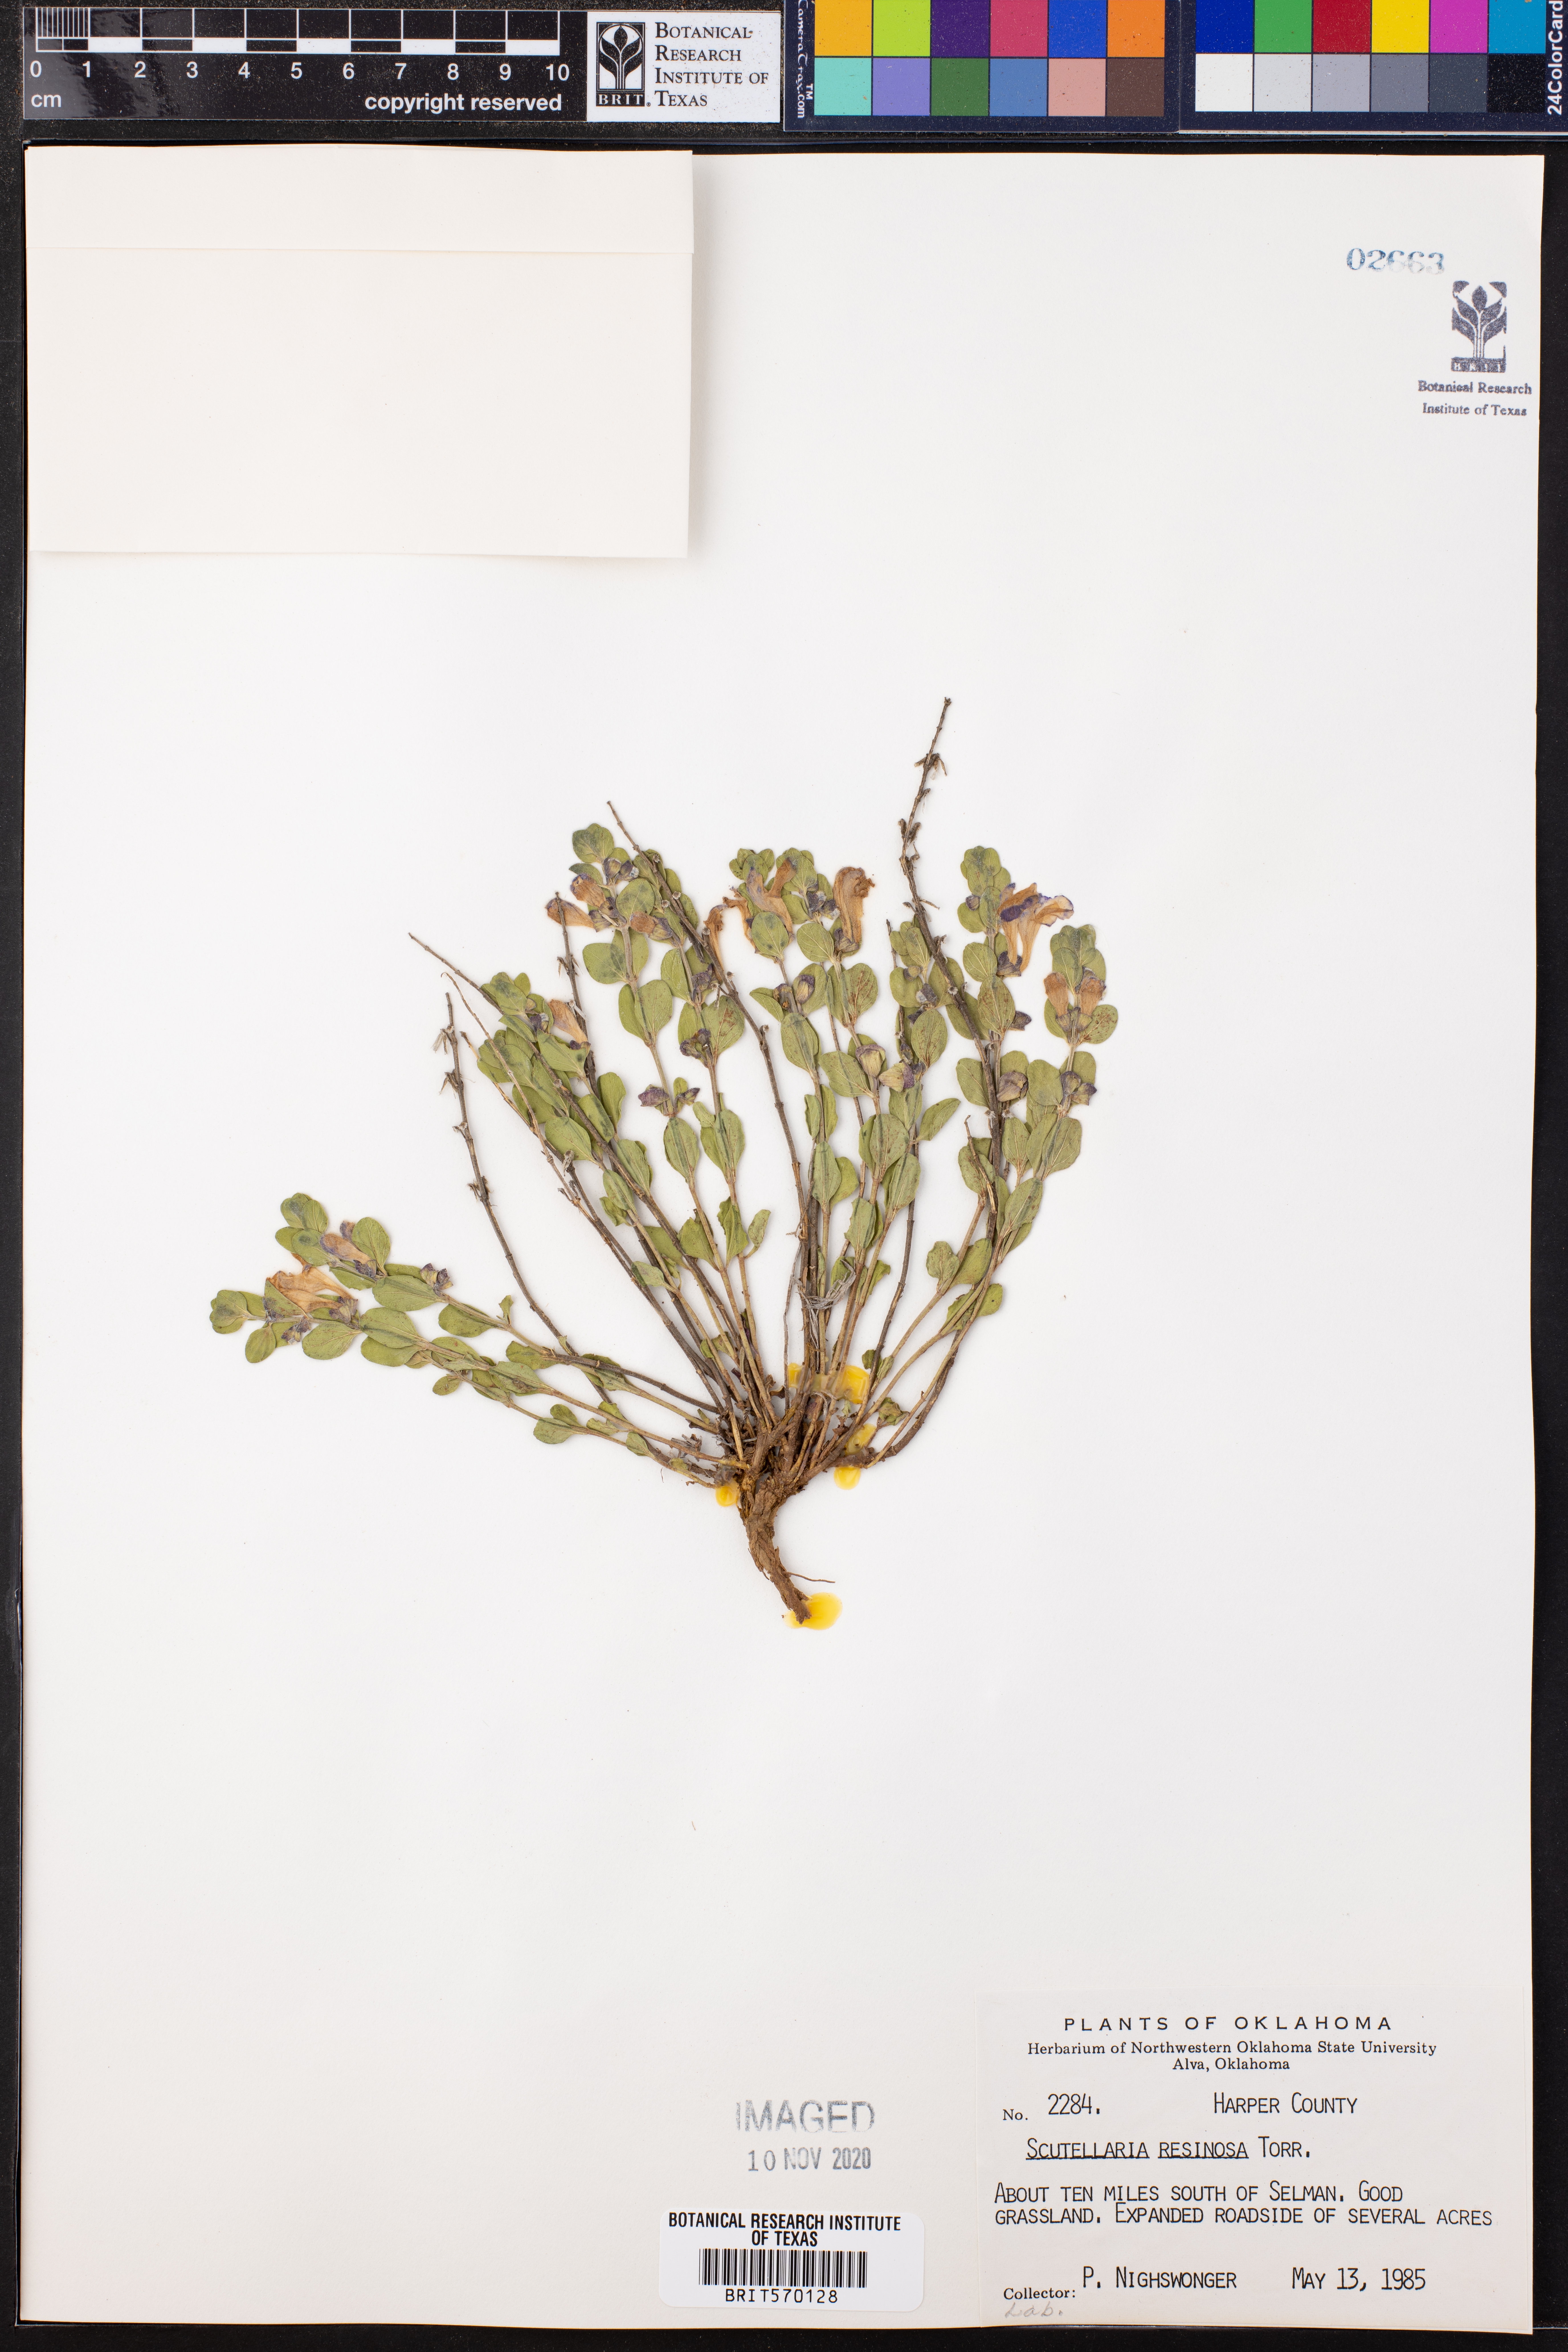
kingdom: Plantae
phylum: Tracheophyta
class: Magnoliopsida
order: Lamiales
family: Lamiaceae
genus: Scutellaria
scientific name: Scutellaria resinosa
